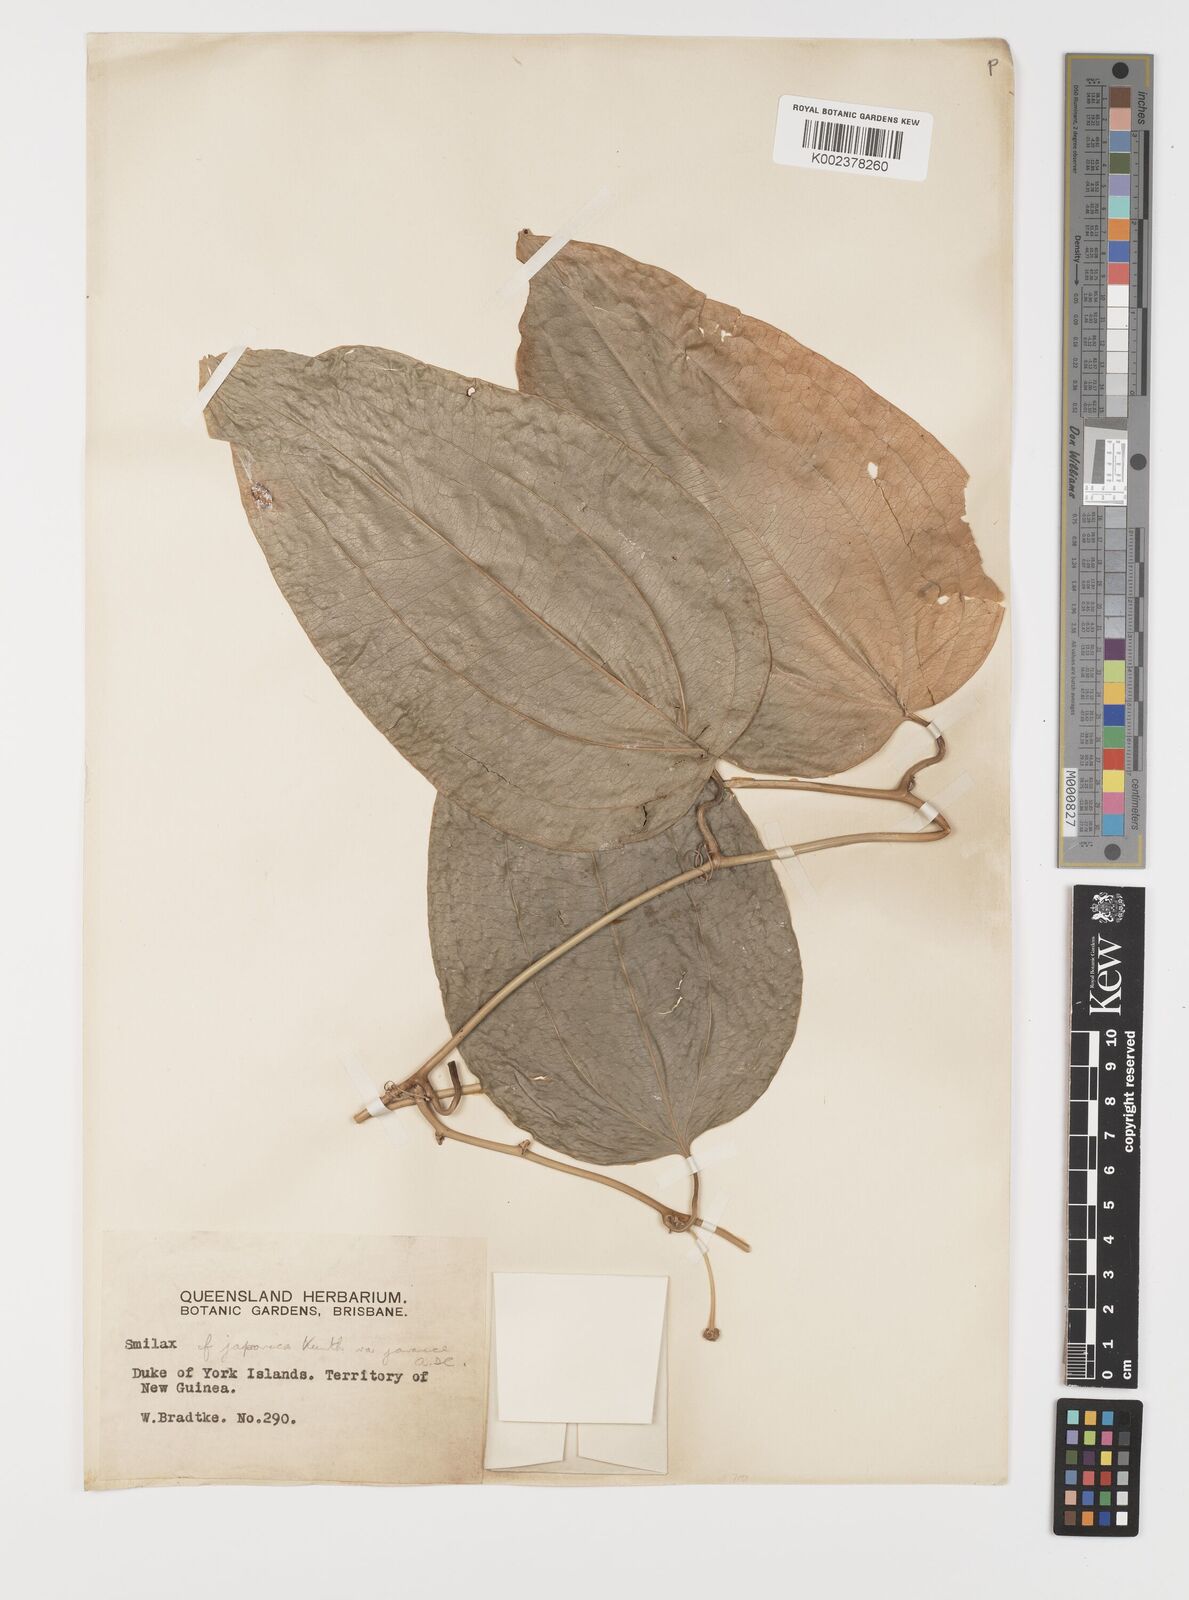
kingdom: Plantae
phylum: Tracheophyta
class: Liliopsida
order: Liliales
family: Smilacaceae
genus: Smilax
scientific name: Smilax
